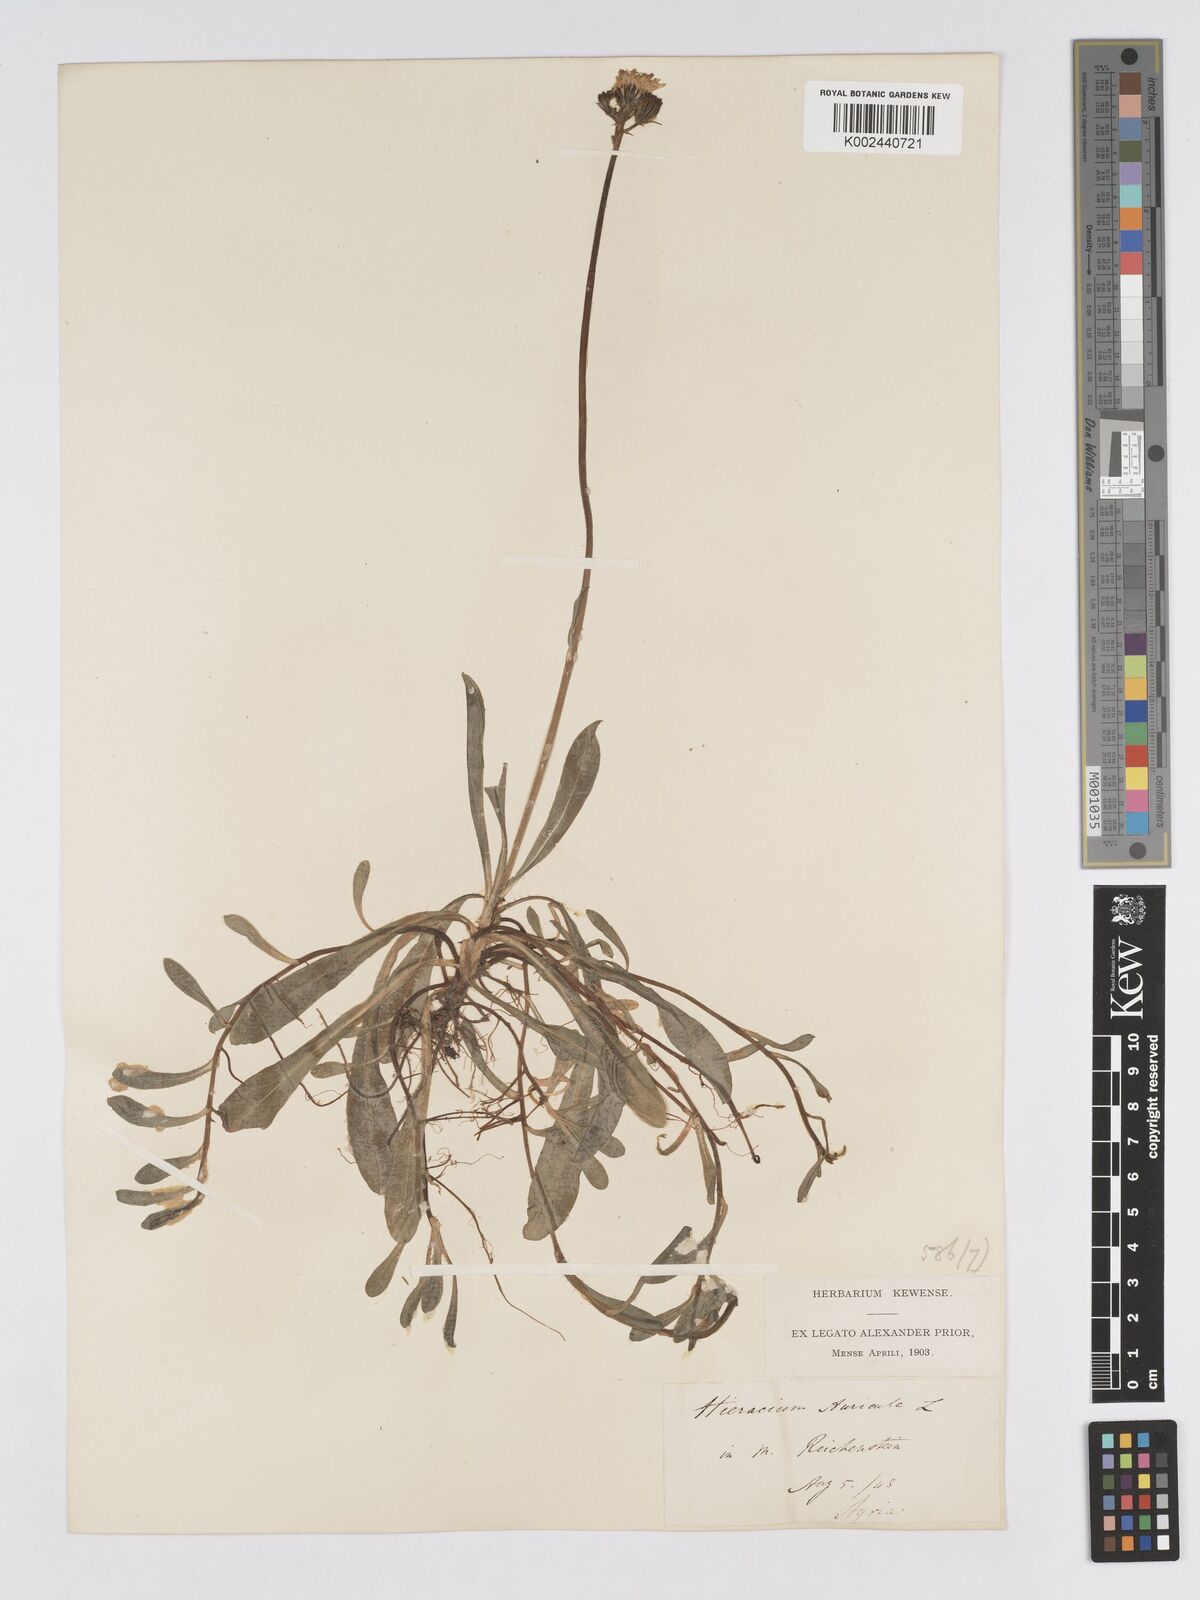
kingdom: Plantae
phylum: Tracheophyta
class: Magnoliopsida
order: Asterales
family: Asteraceae
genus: Pilosella
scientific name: Pilosella floribunda
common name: Glaucous hawkweed
